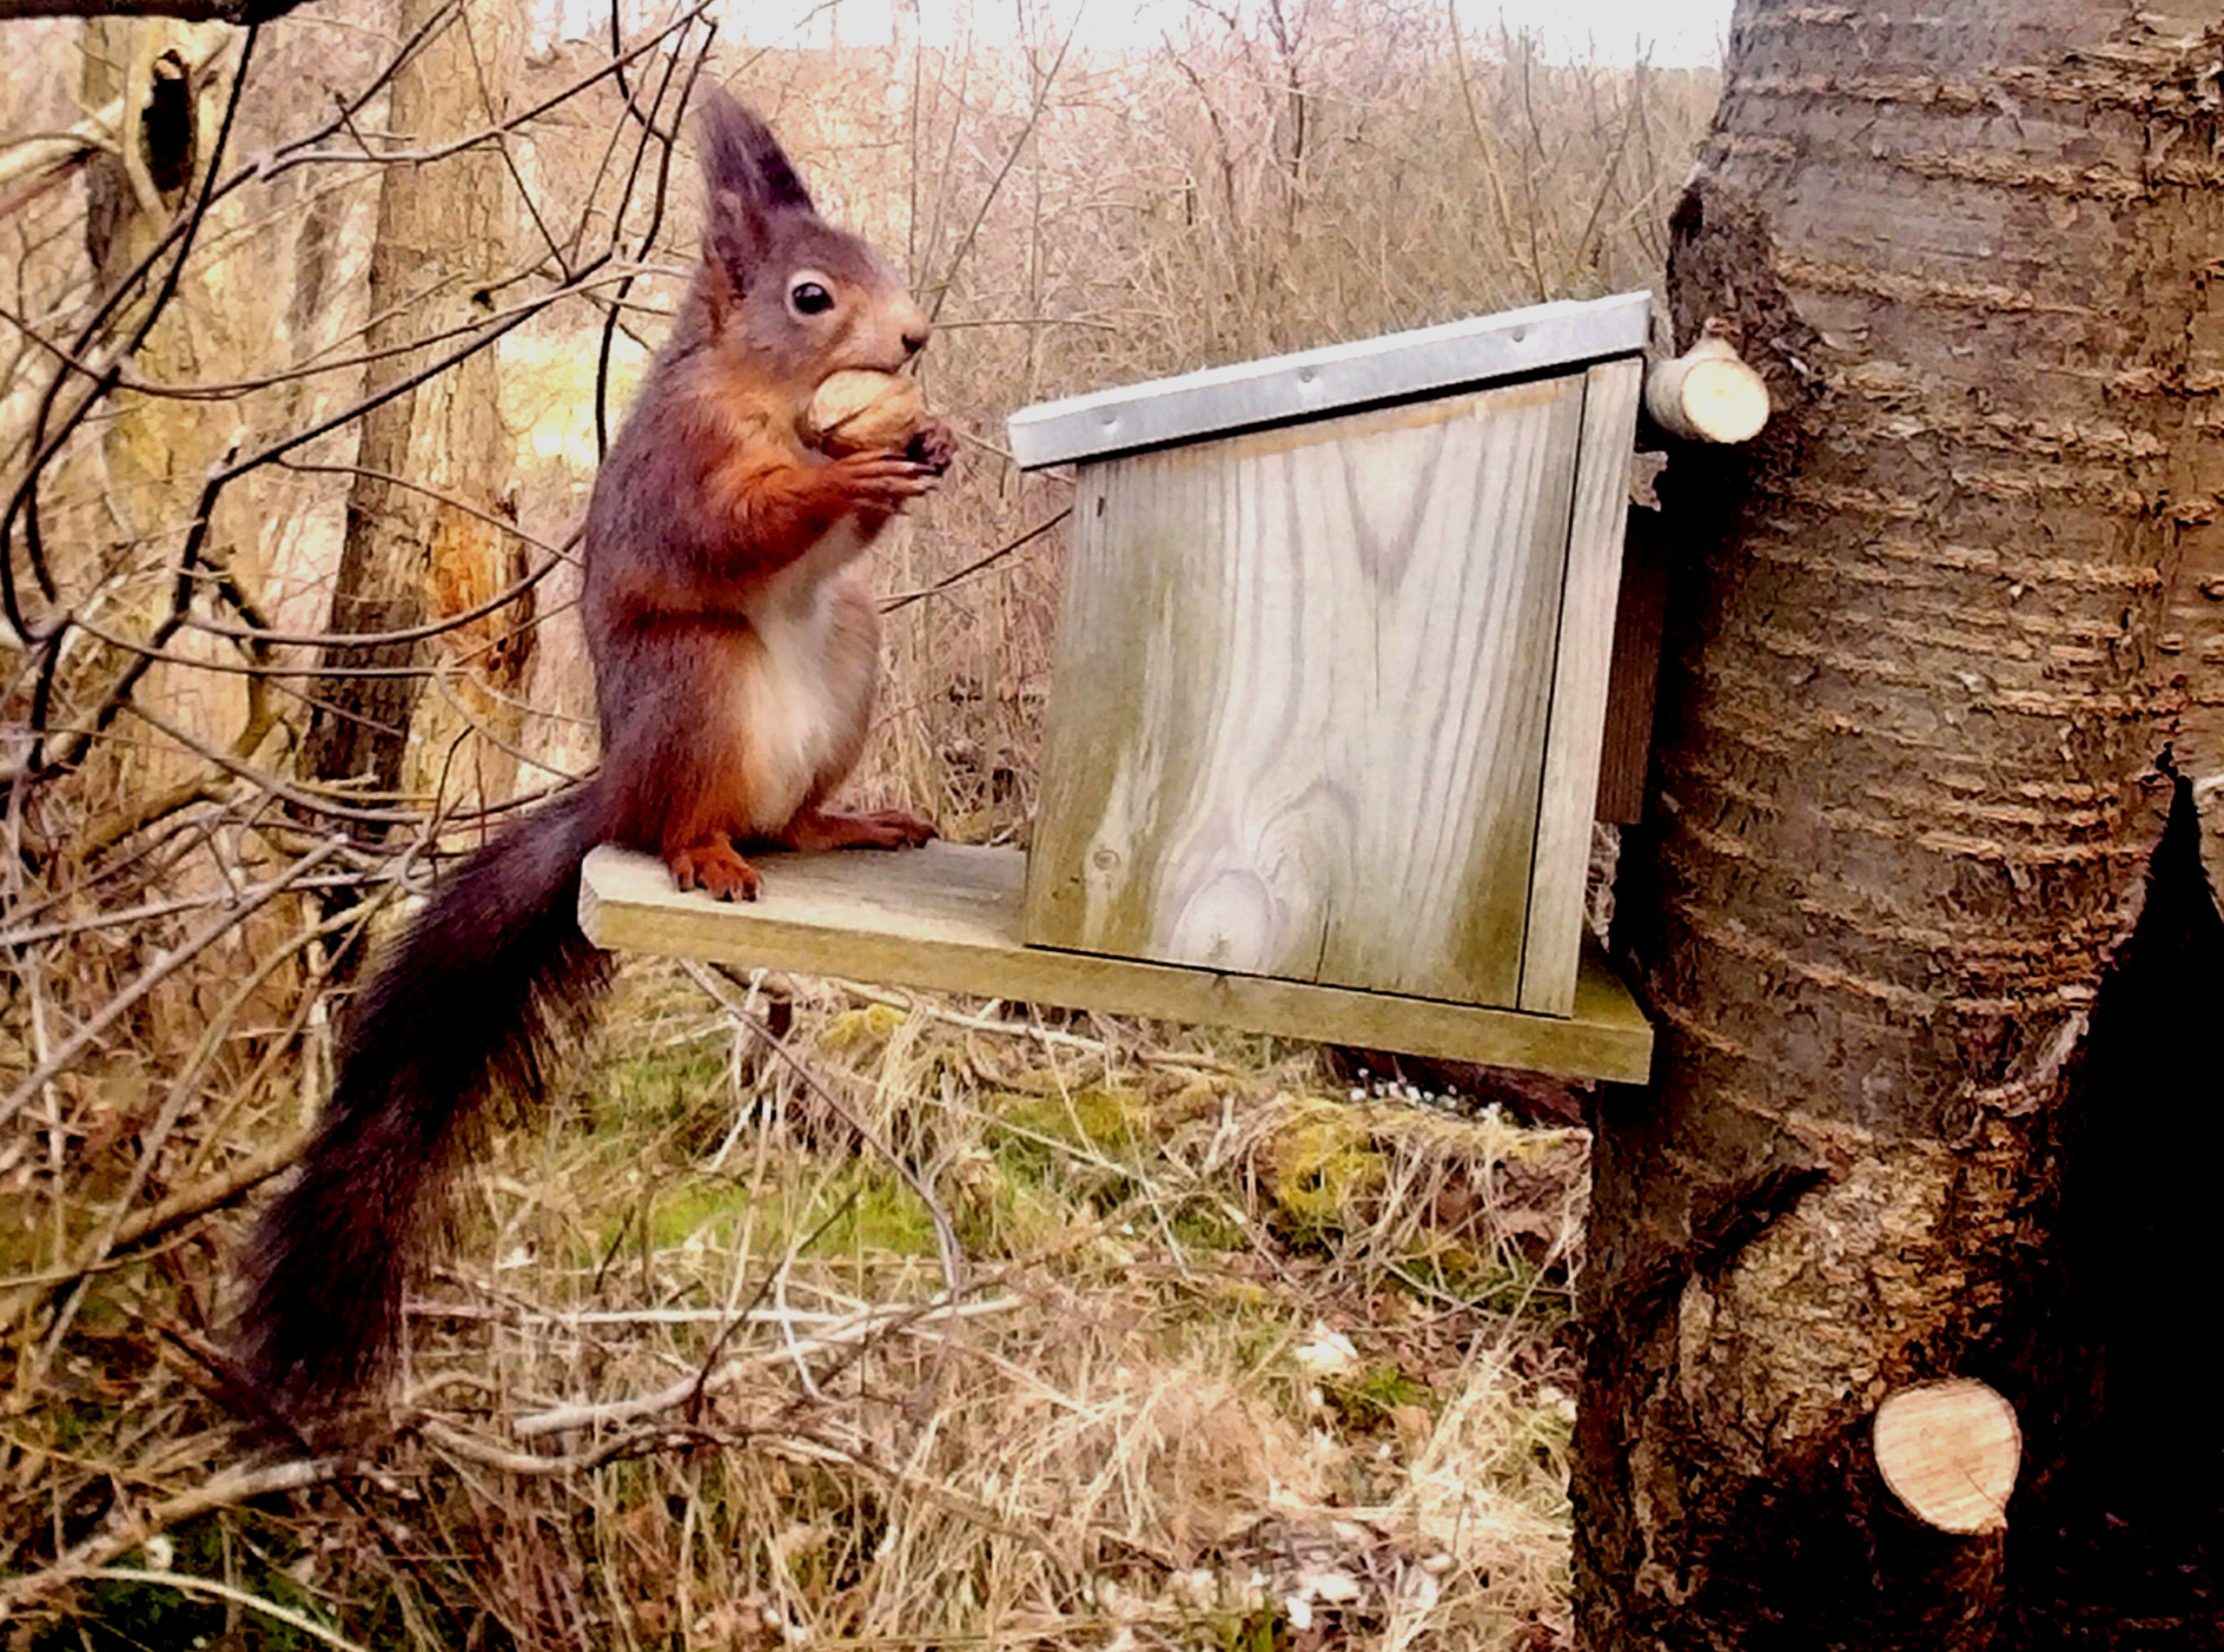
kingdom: Animalia
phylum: Chordata
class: Mammalia
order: Rodentia
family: Sciuridae
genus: Sciurus
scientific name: Sciurus vulgaris
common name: Egern
